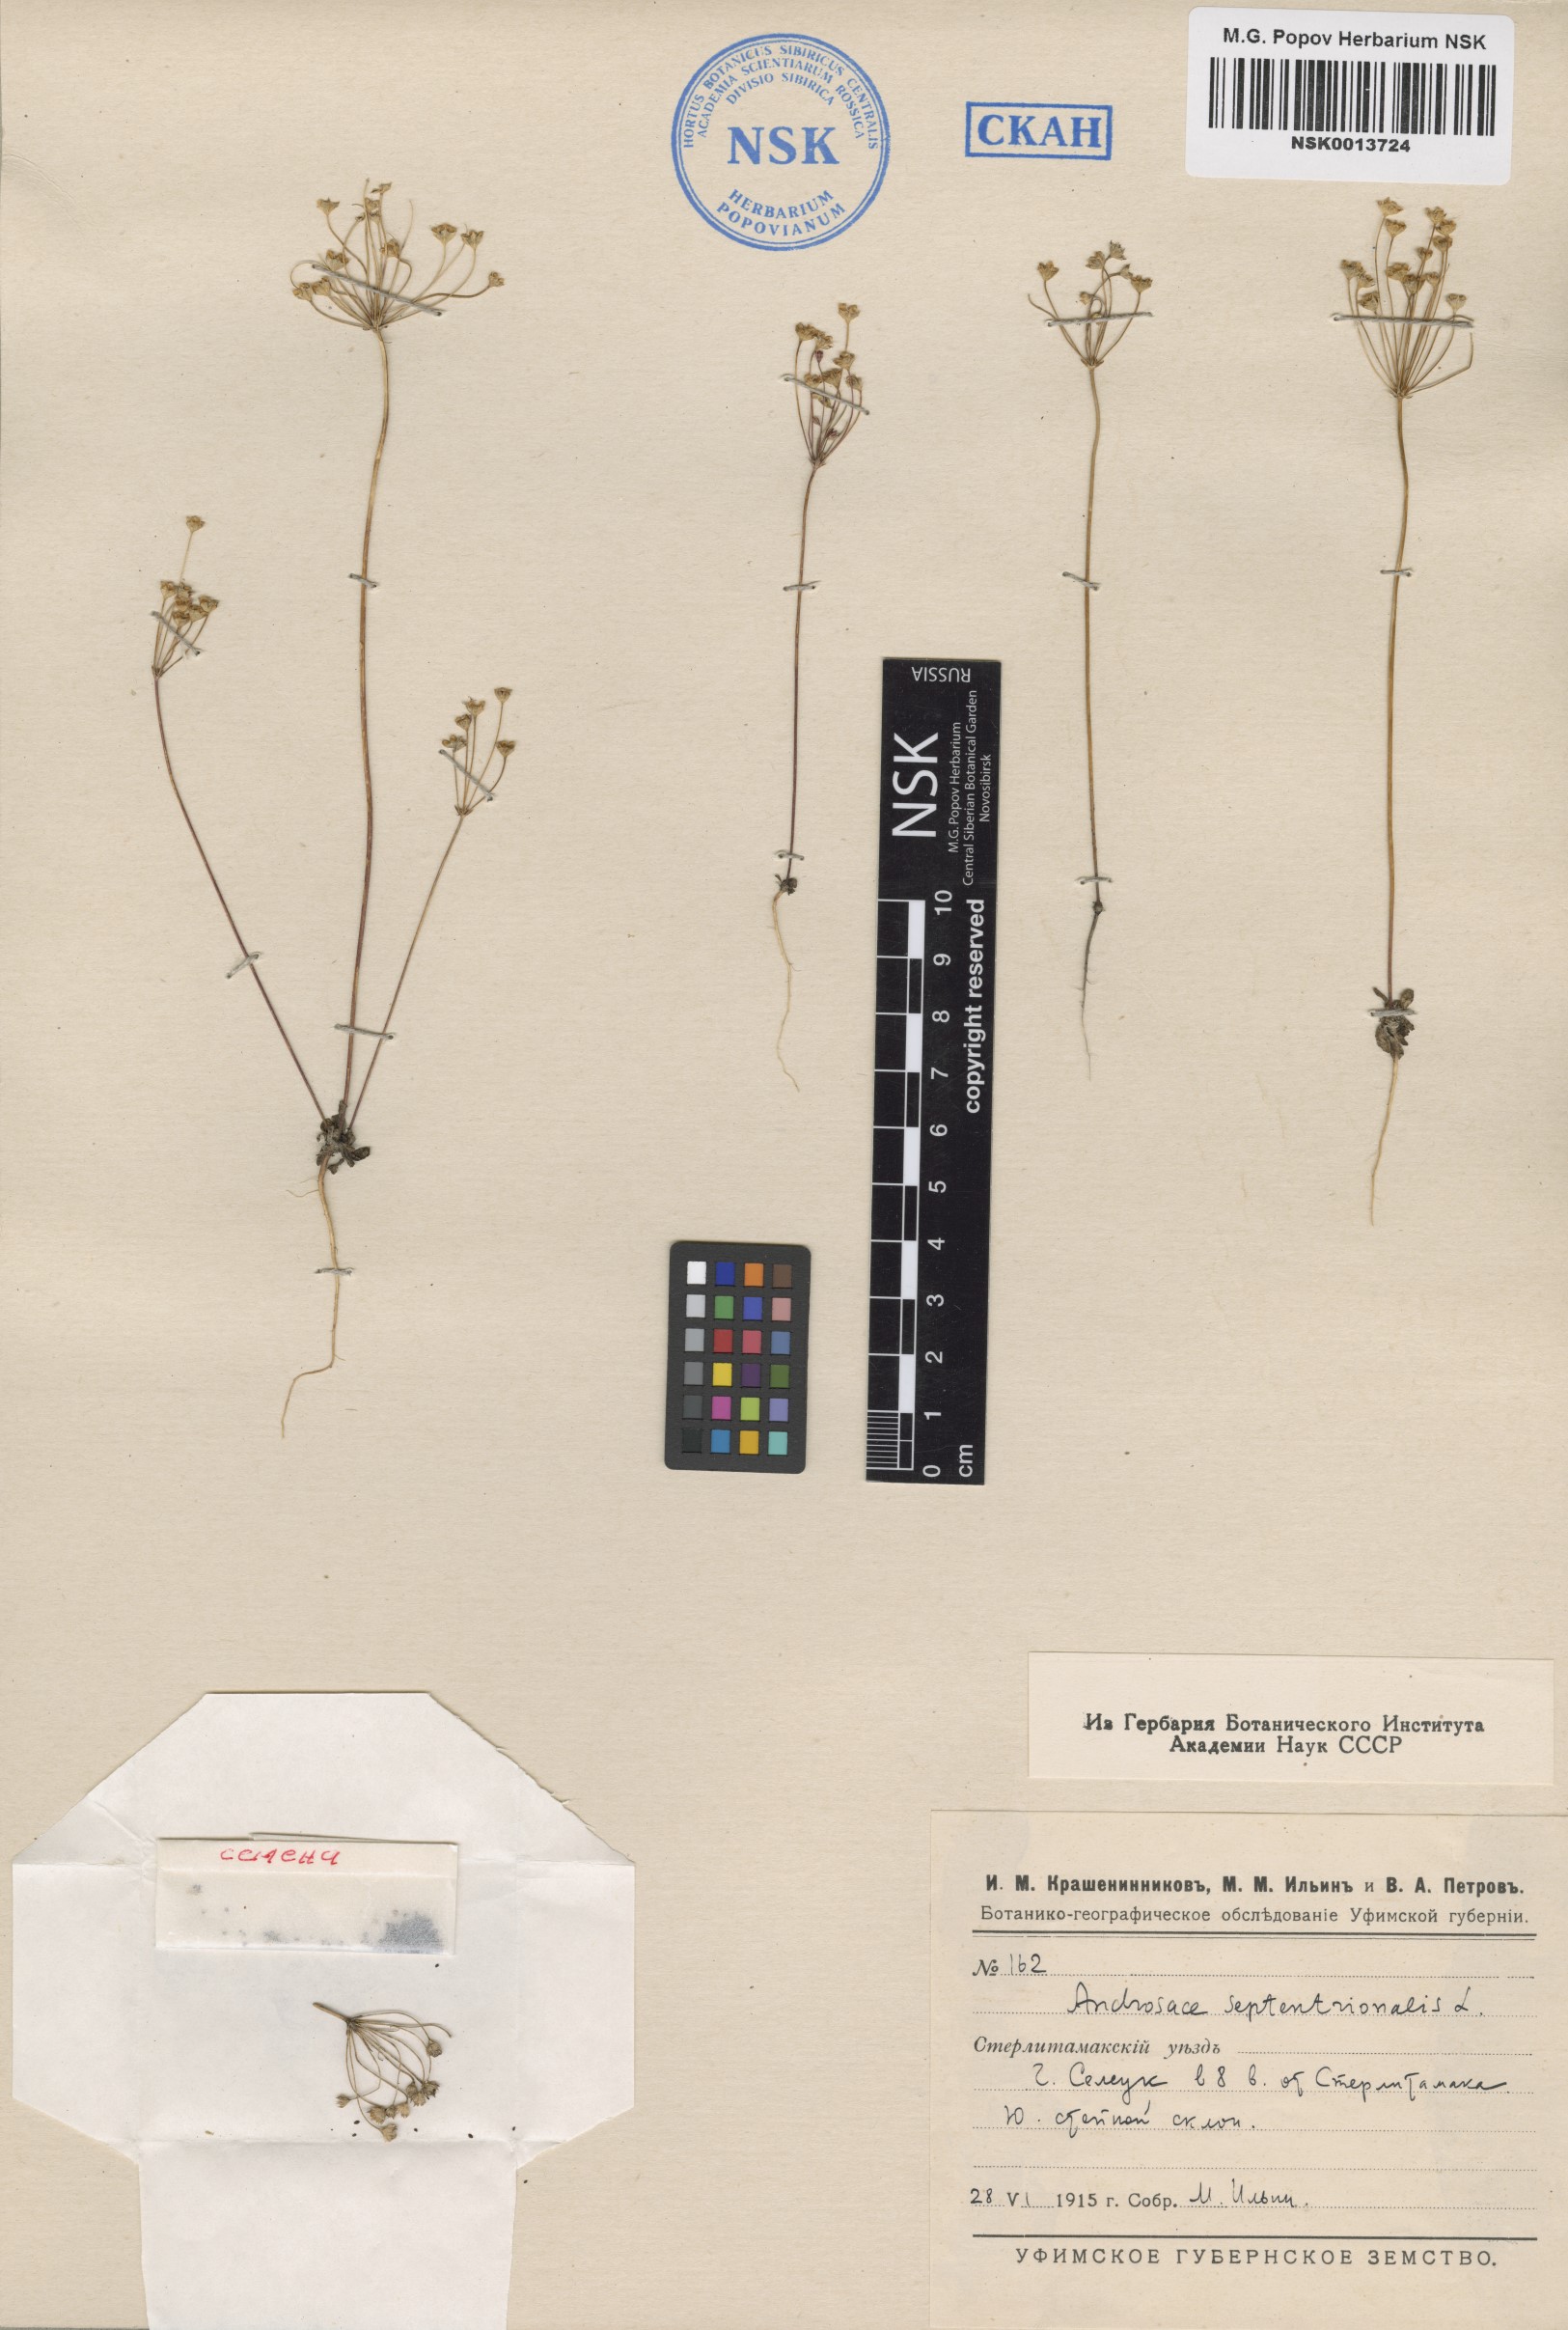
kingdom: Plantae
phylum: Tracheophyta
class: Magnoliopsida
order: Ericales
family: Primulaceae
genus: Androsace
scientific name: Androsace septentrionalis
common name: Hairy northern fairy-candelabra
